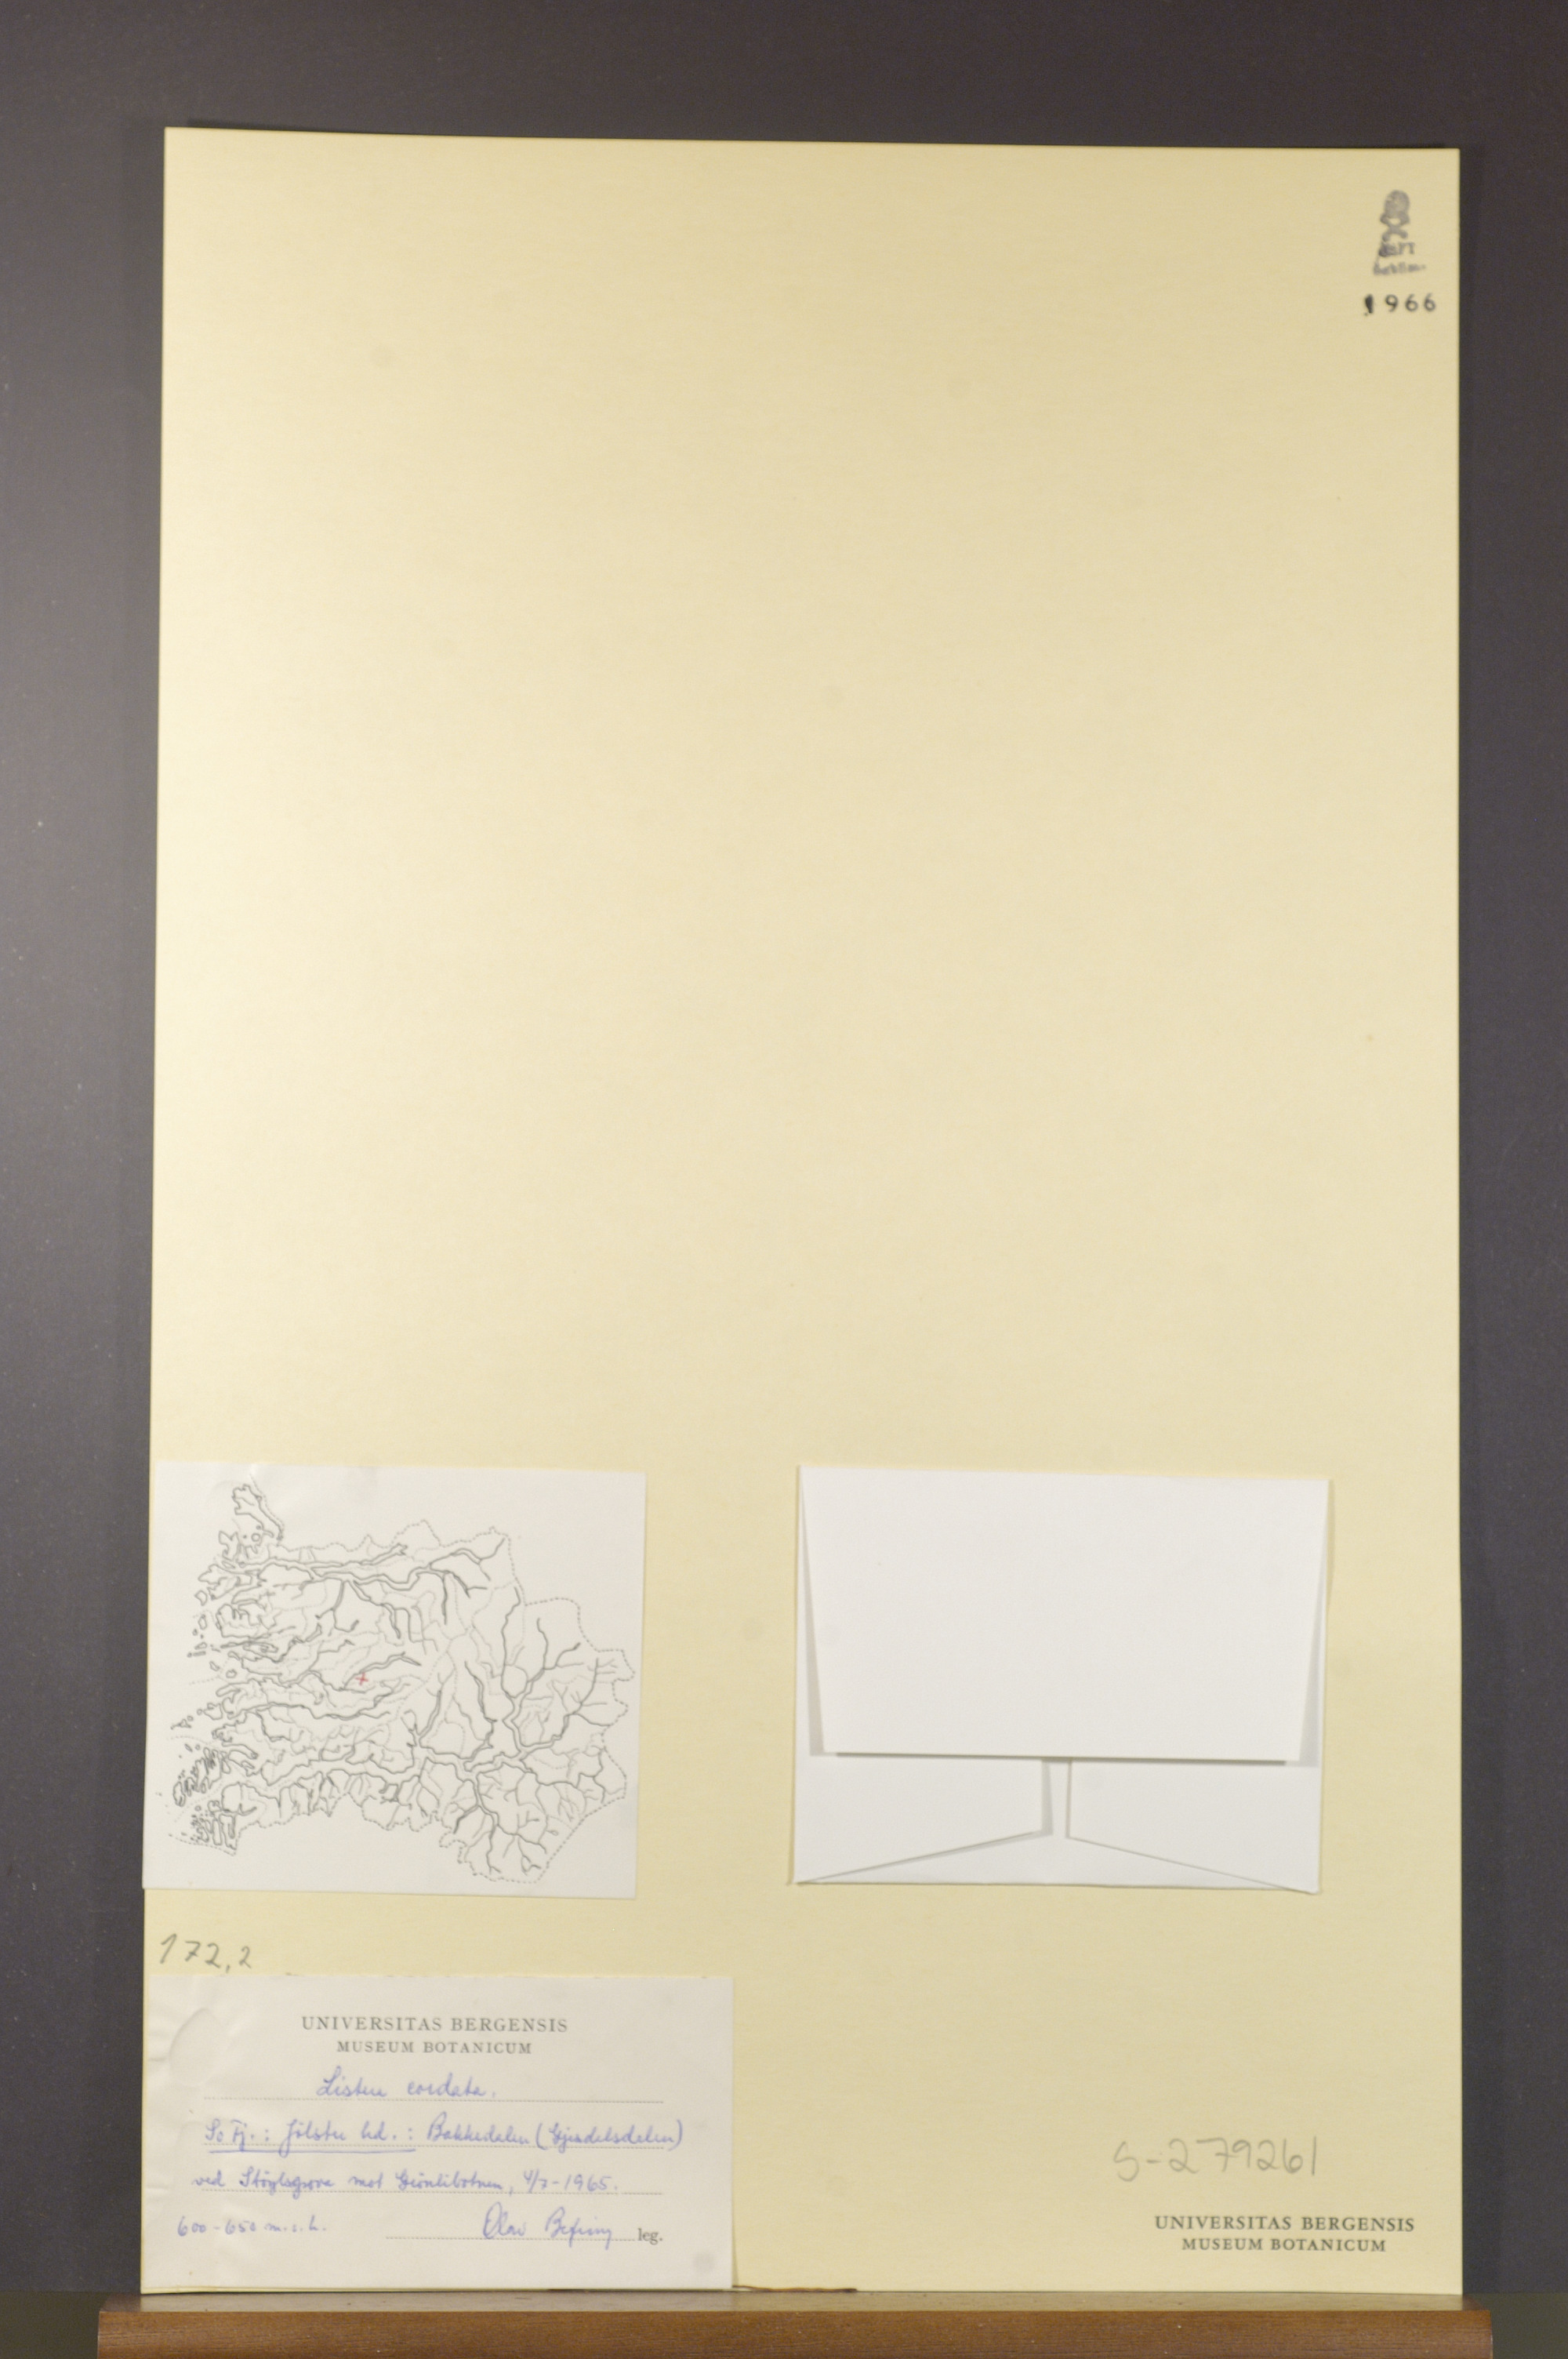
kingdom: Plantae
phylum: Tracheophyta
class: Liliopsida
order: Asparagales
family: Orchidaceae
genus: Neottia
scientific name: Neottia cordata
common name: Lesser twayblade
